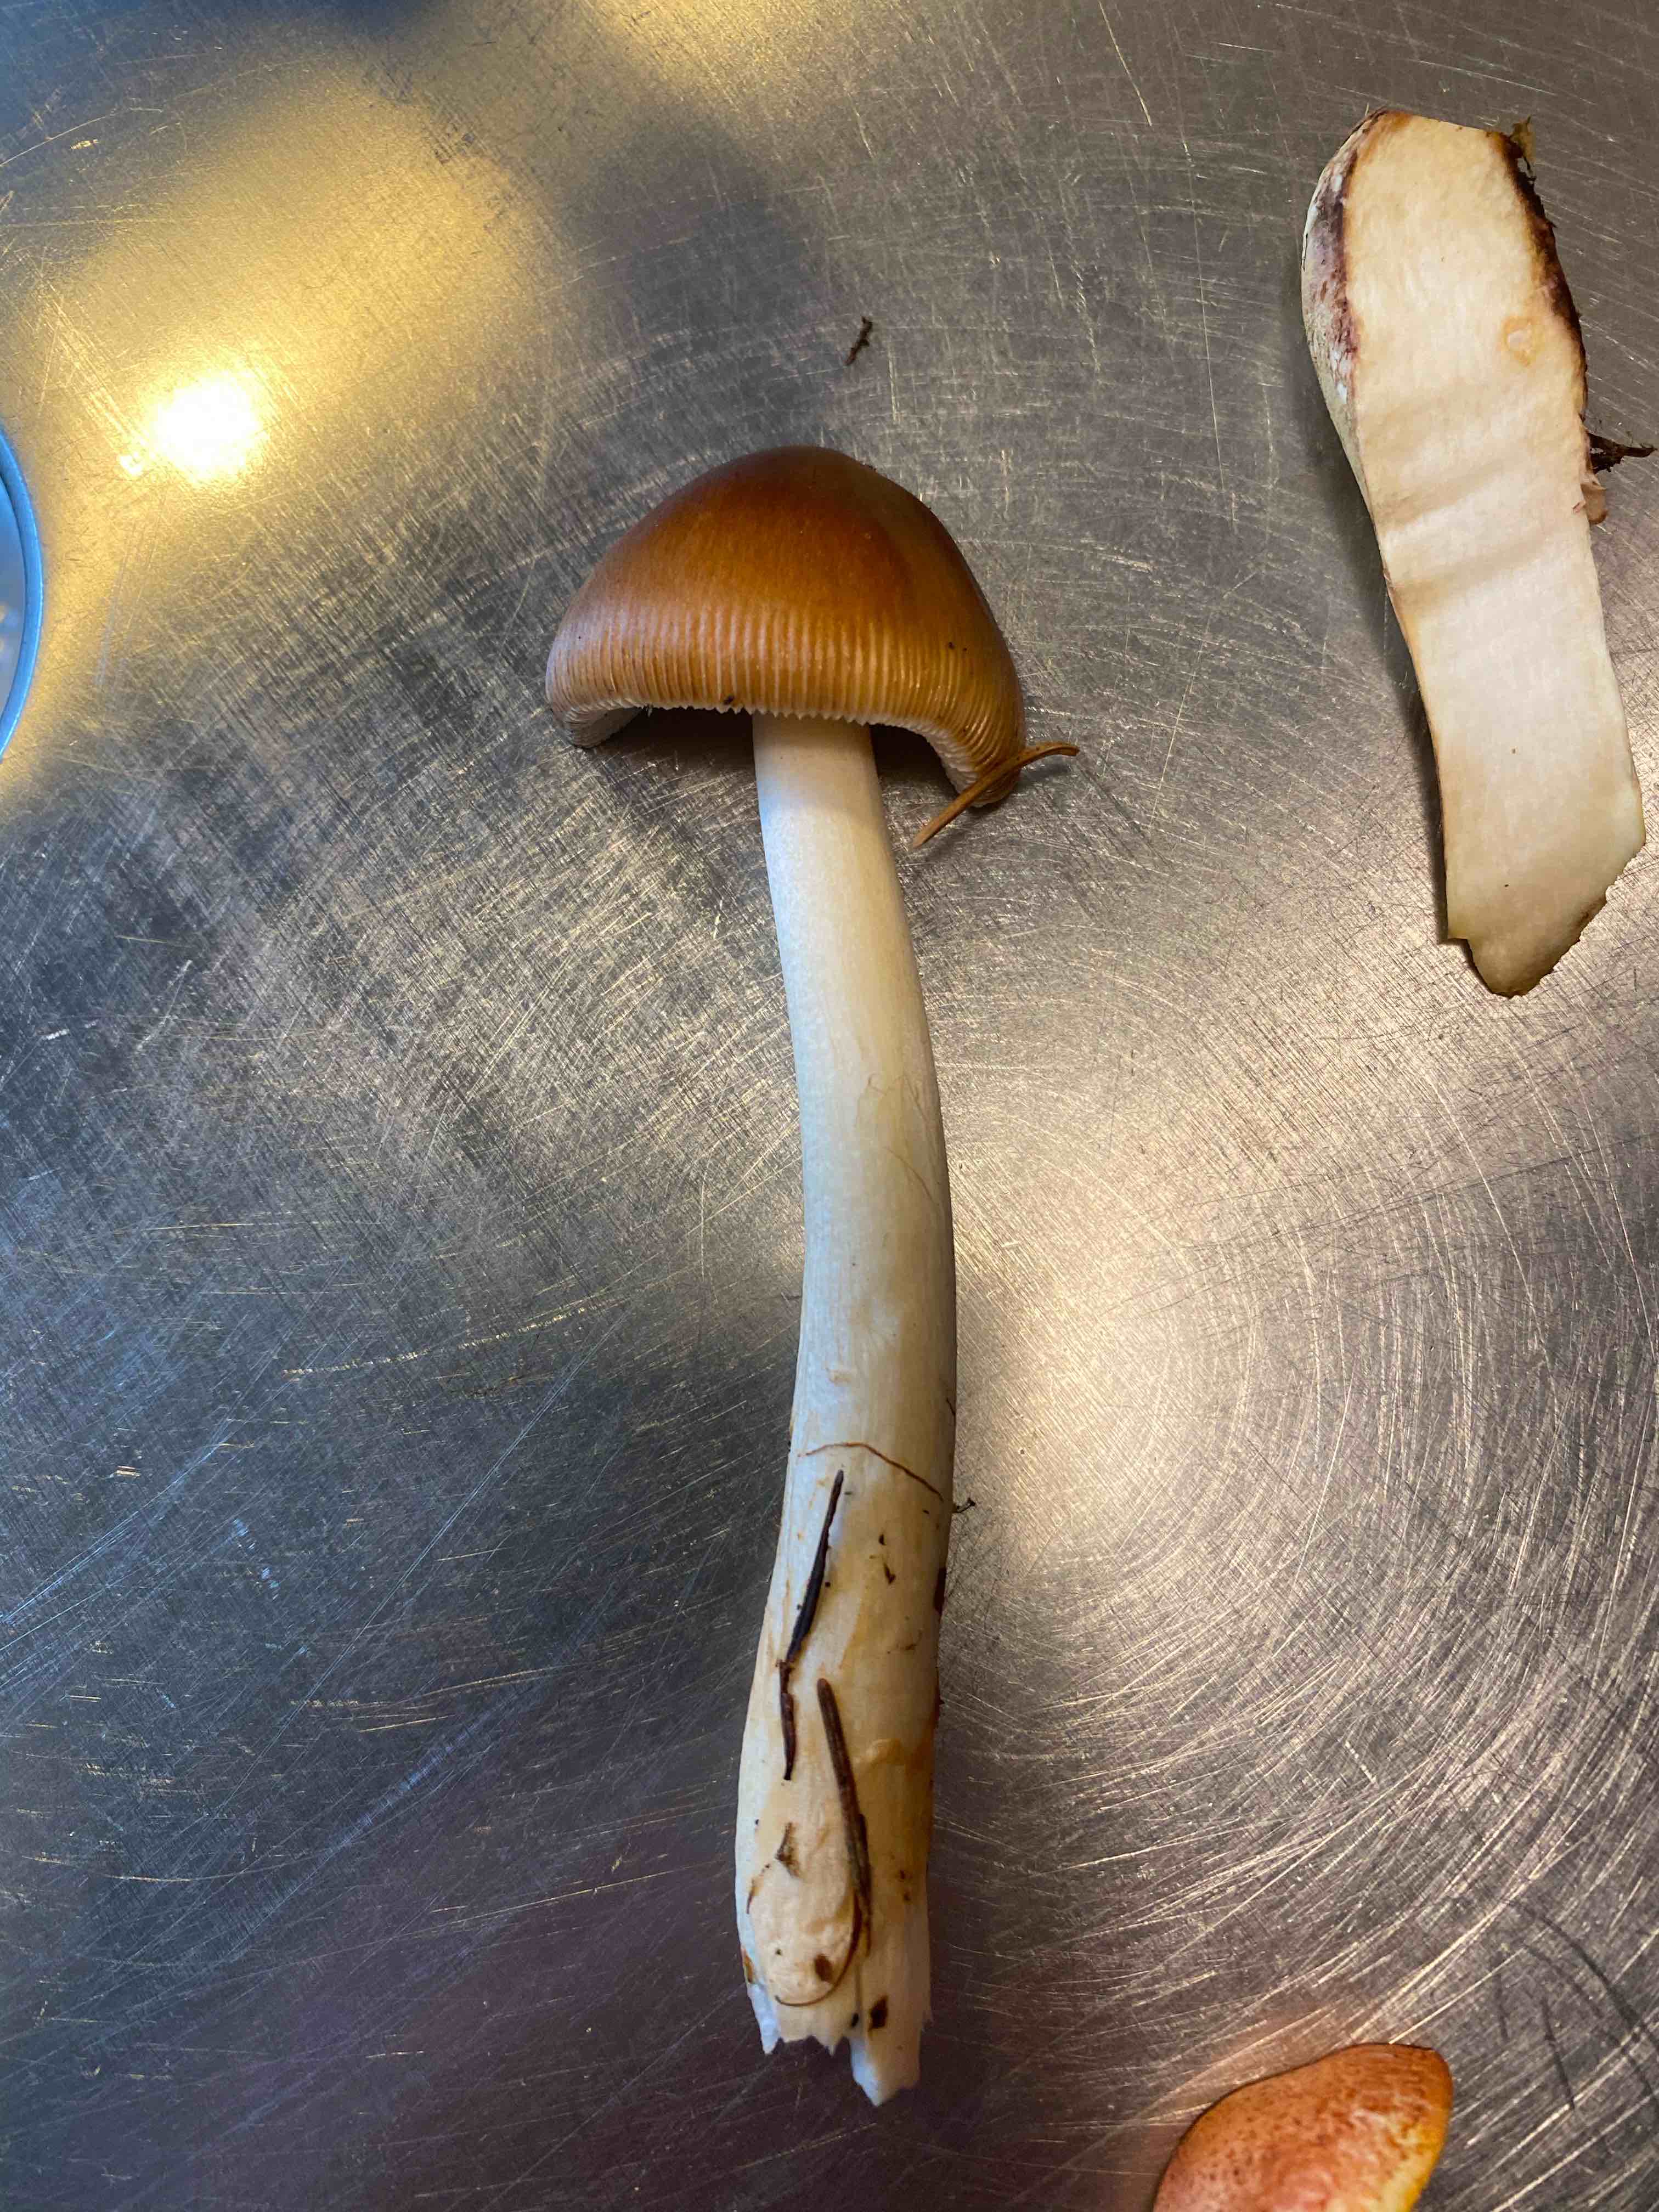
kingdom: Fungi
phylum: Basidiomycota
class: Agaricomycetes
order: Agaricales
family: Amanitaceae
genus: Amanita
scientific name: Amanita fulva
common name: brun kam-fluesvamp
